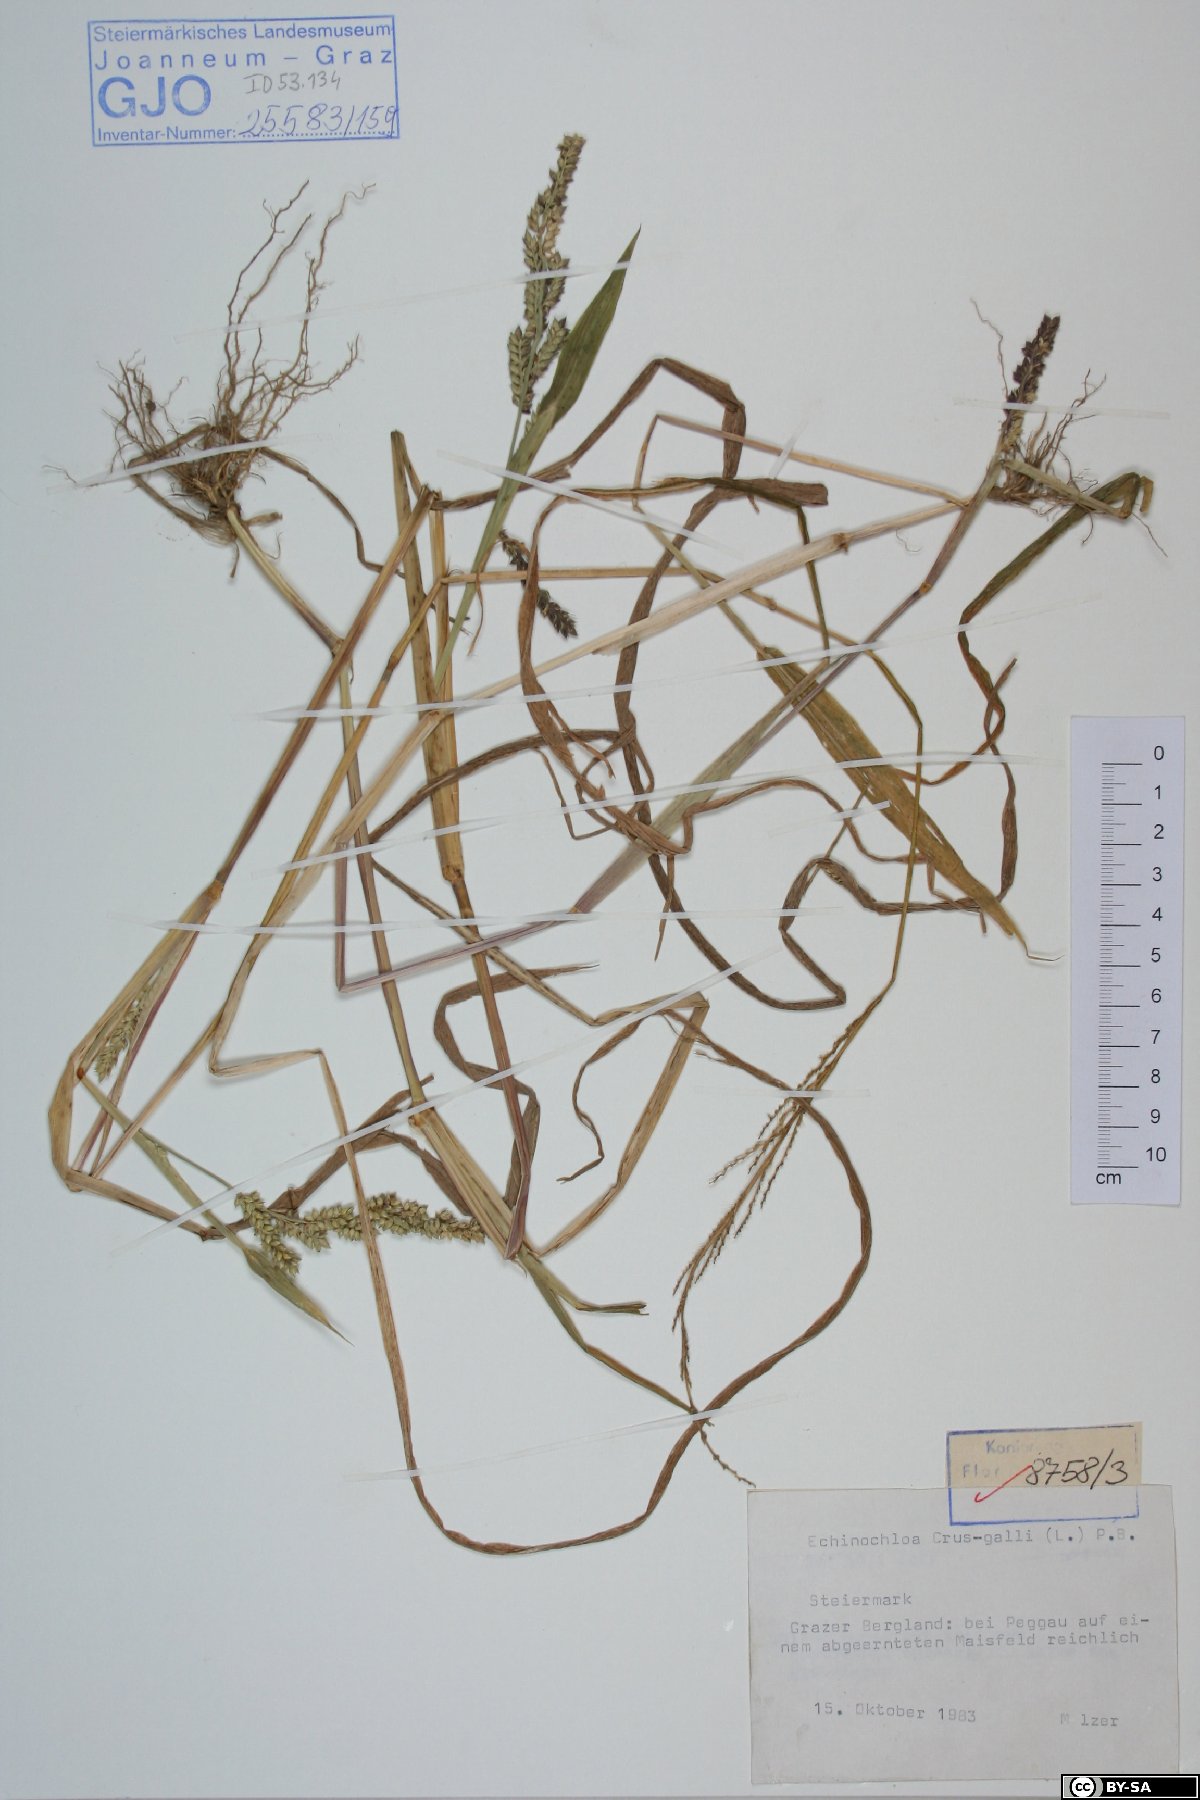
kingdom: Plantae
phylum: Tracheophyta
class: Liliopsida
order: Poales
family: Poaceae
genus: Echinochloa
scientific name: Echinochloa crus-galli
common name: Cockspur
